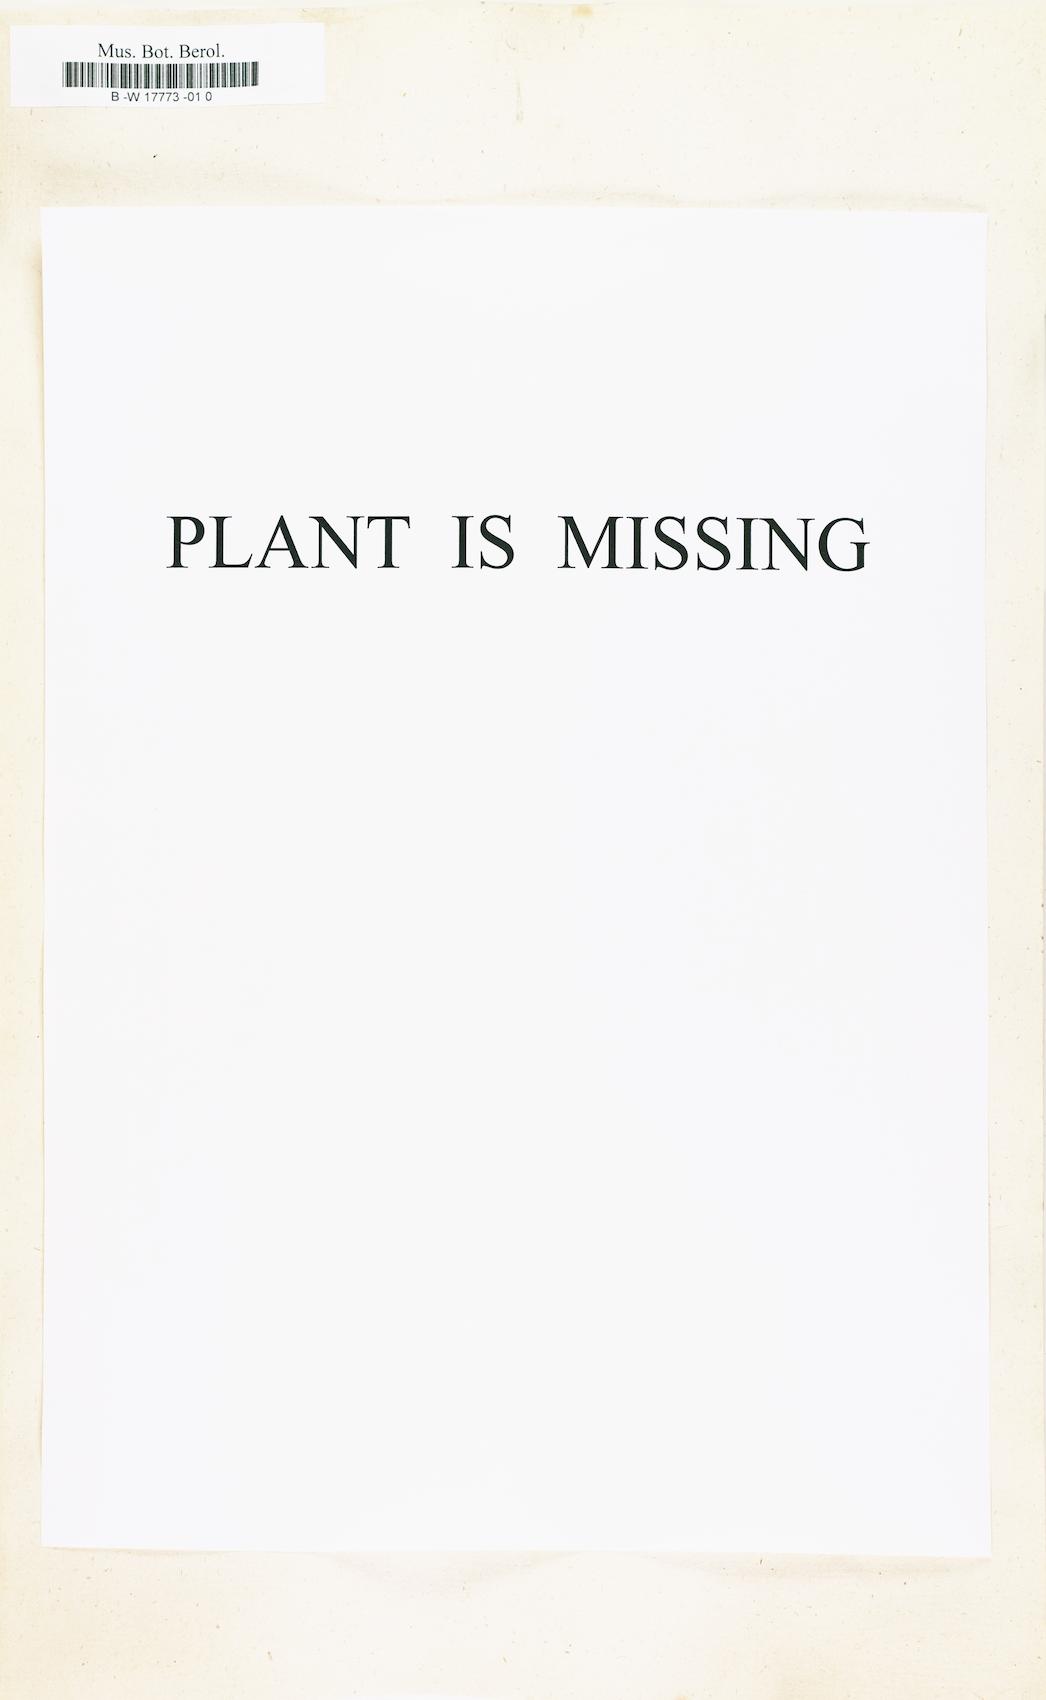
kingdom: Plantae
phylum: Tracheophyta
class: Pinopsida
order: Pinales
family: Pinaceae
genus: Picea
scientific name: Picea abies
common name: Norway spruce
